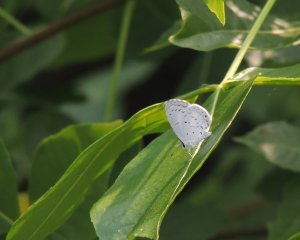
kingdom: Animalia
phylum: Arthropoda
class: Insecta
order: Lepidoptera
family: Lycaenidae
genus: Cyaniris
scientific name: Cyaniris neglecta
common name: Summer Azure
